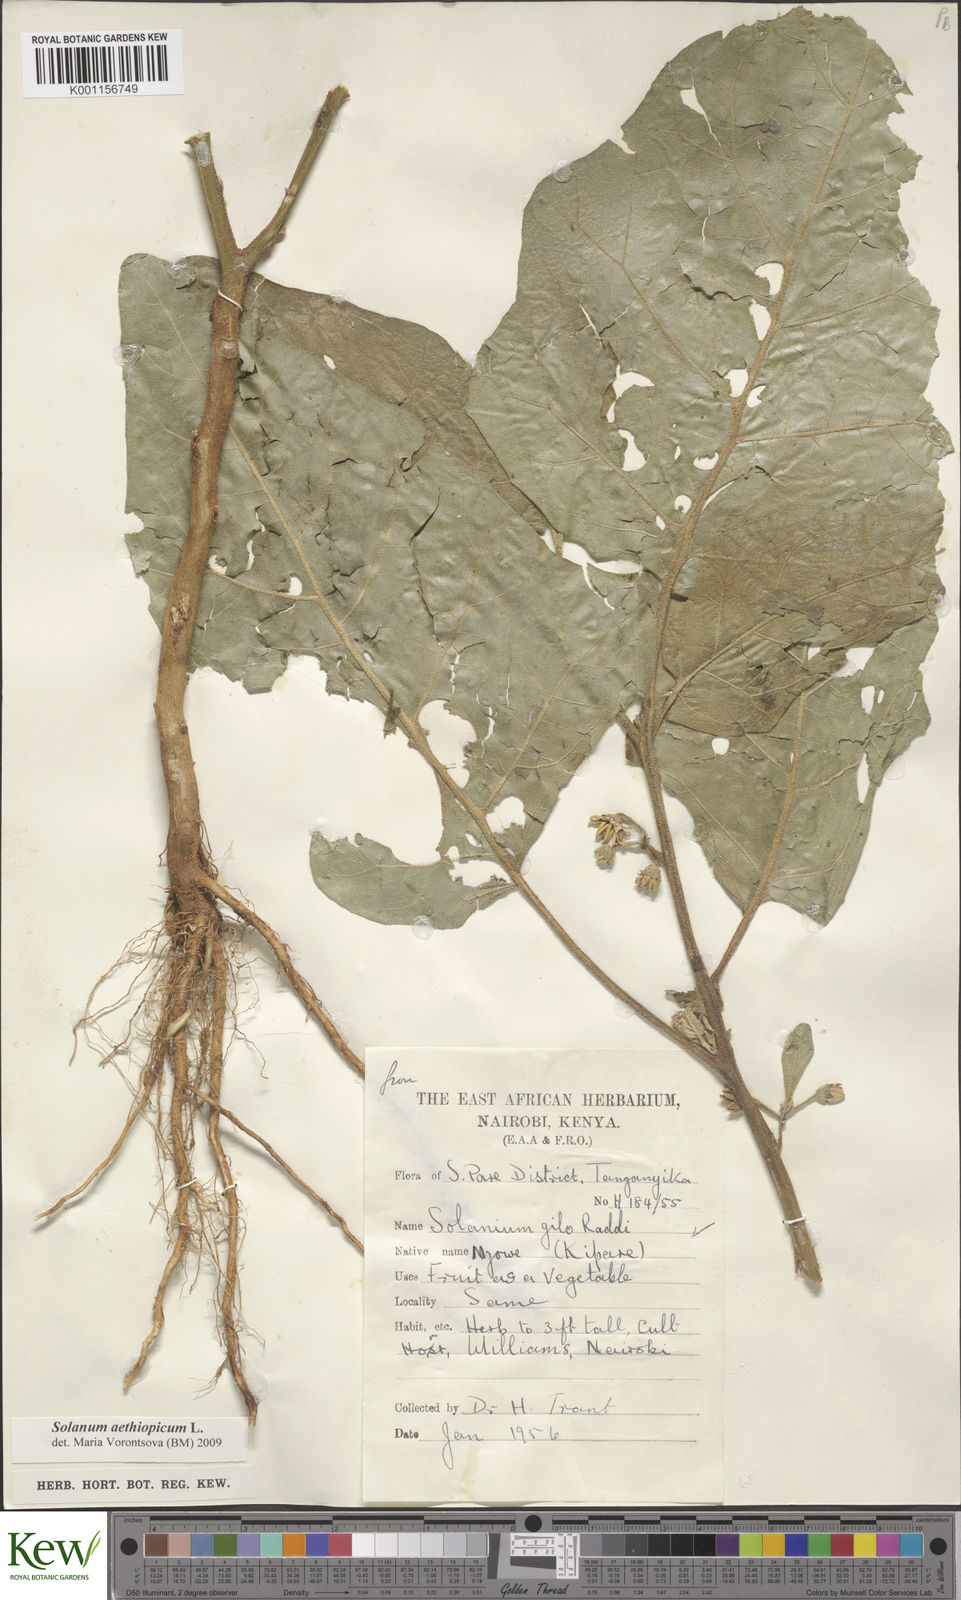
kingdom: Plantae
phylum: Tracheophyta
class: Magnoliopsida
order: Solanales
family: Solanaceae
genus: Solanum
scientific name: Solanum aethiopicum
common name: Gilo
